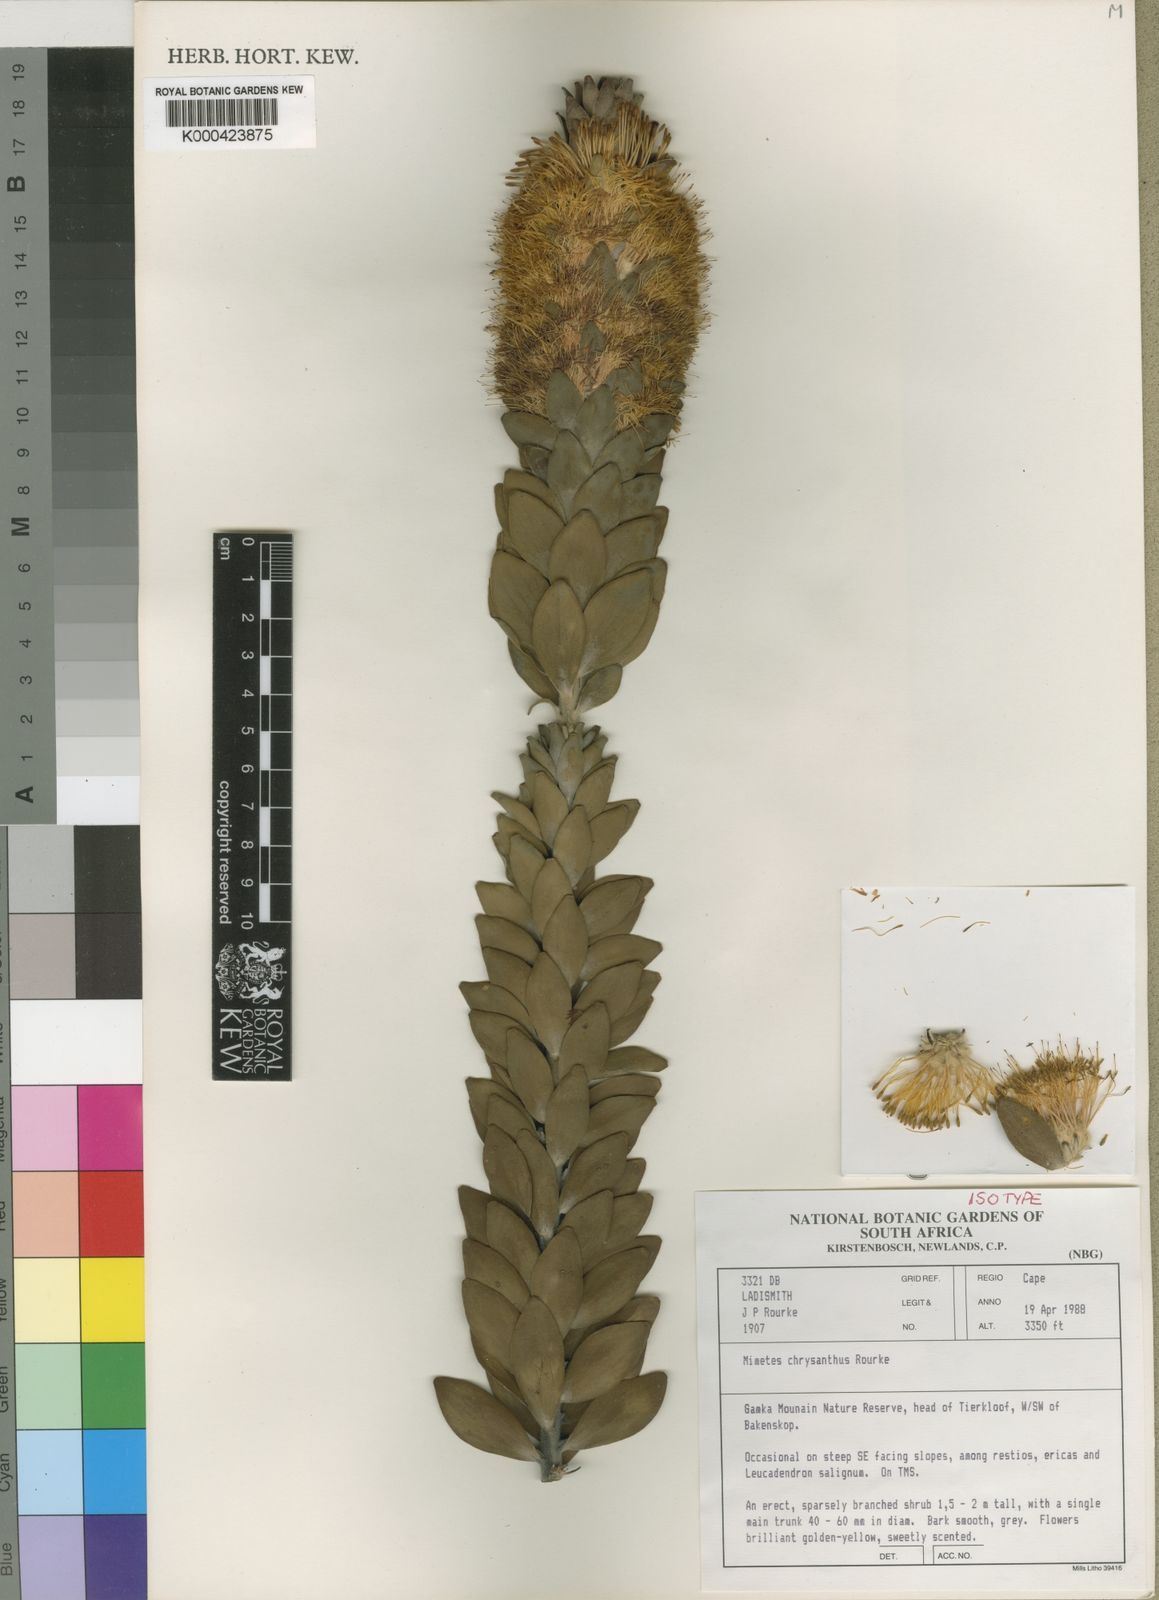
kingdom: Plantae
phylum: Tracheophyta
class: Magnoliopsida
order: Proteales
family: Proteaceae
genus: Mimetes
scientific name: Mimetes chrysanthus
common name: Golden pagoda
